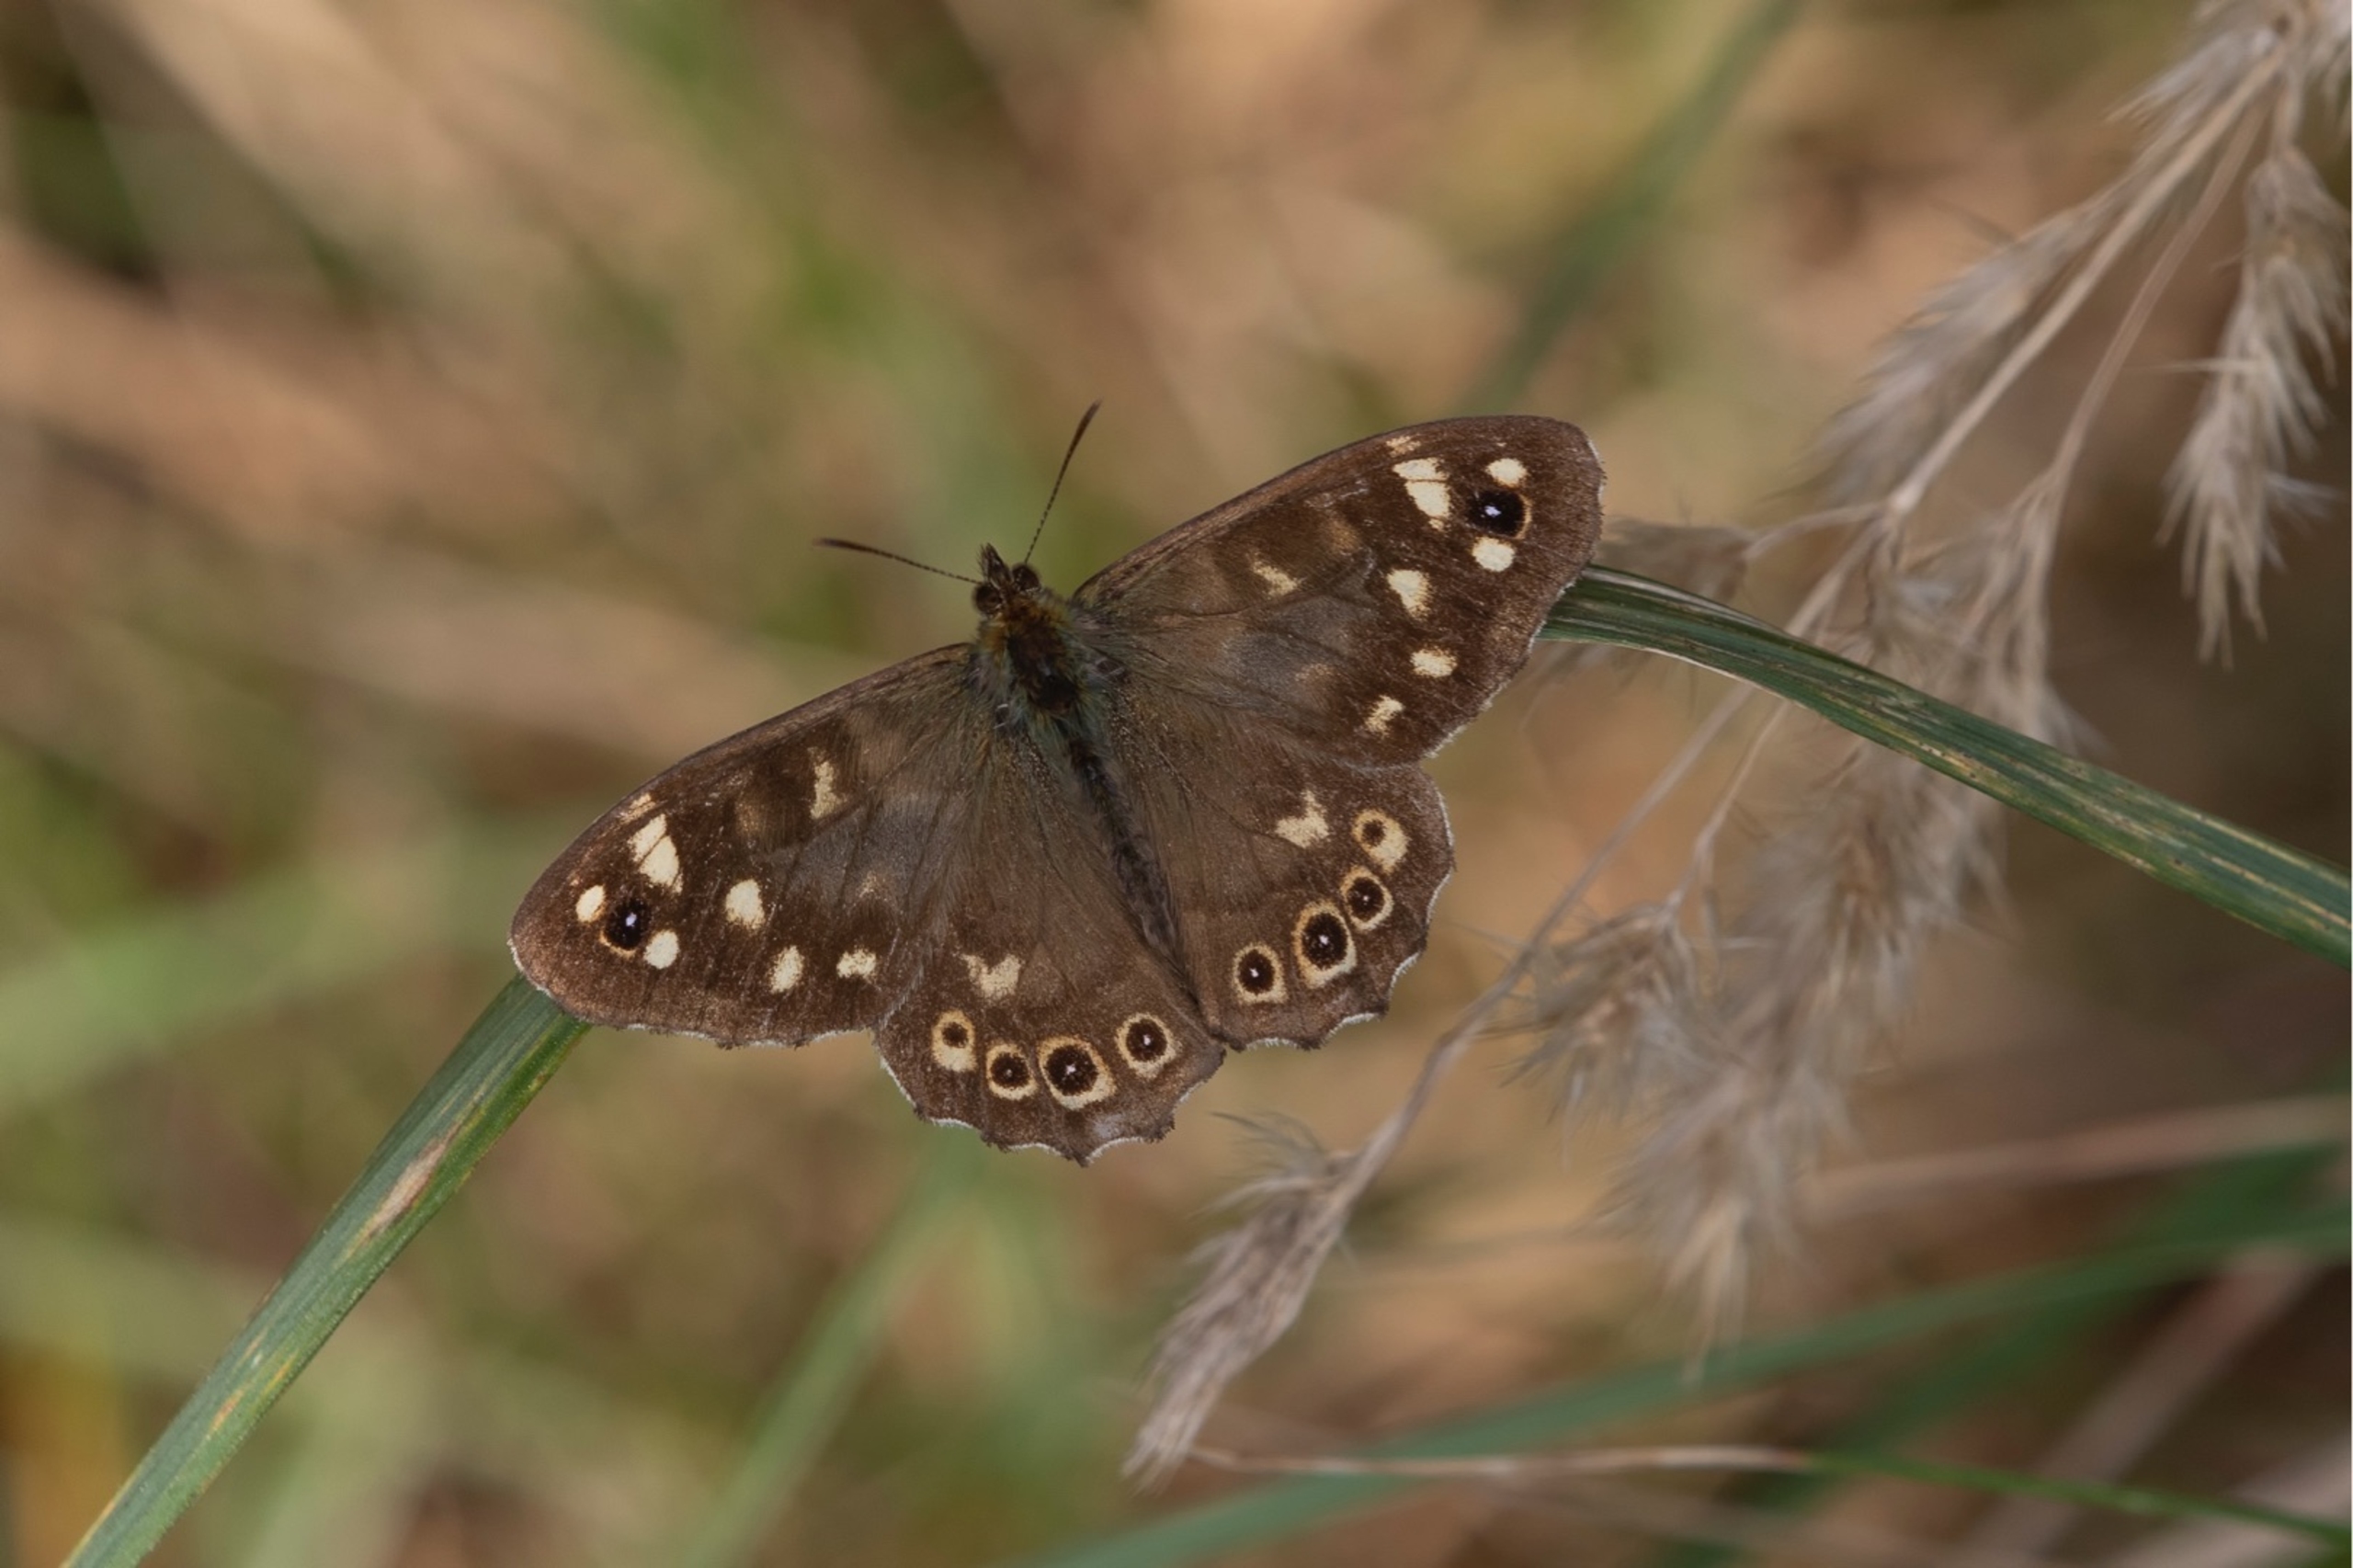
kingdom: Animalia
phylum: Arthropoda
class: Insecta
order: Lepidoptera
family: Nymphalidae
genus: Pararge
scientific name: Pararge aegeria
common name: Skovrandøje
